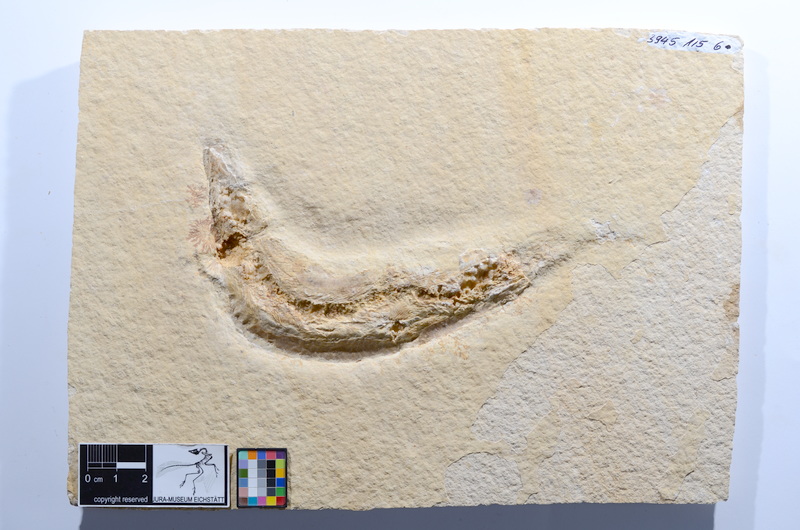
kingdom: Animalia
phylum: Chordata
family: Ascalaboidae
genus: Tharsis
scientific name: Tharsis dubius
